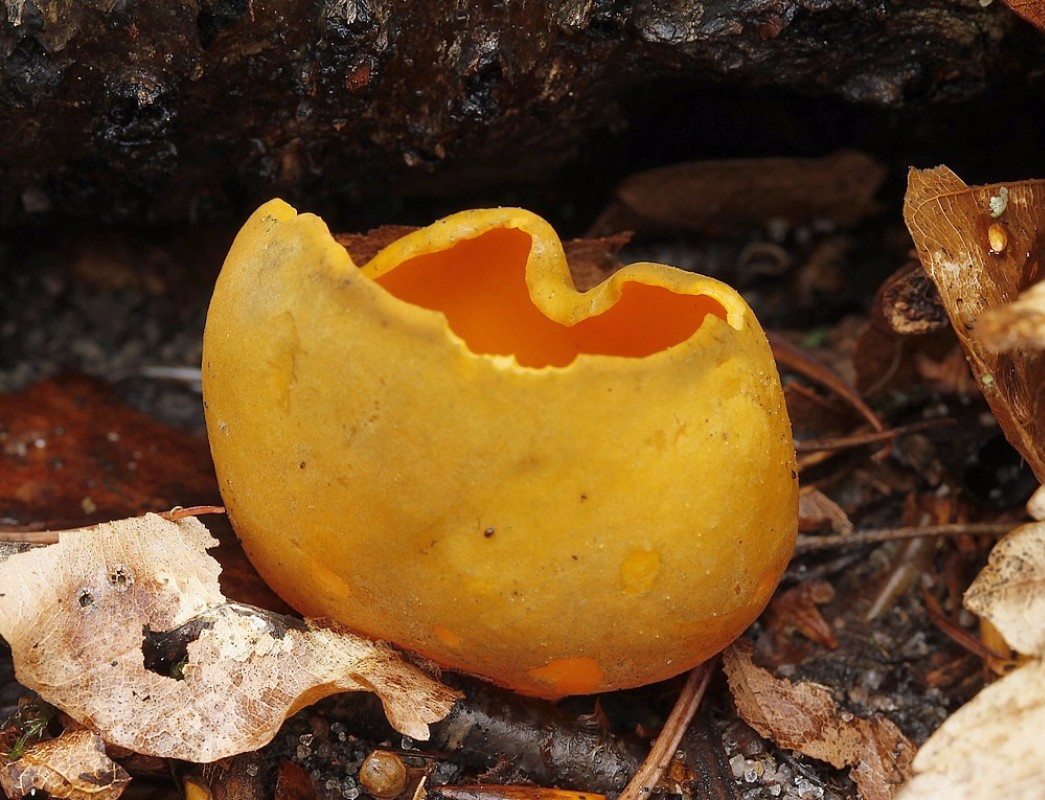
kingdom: Fungi
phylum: Ascomycota
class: Pezizomycetes
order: Pezizales
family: Caloscyphaceae
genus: Caloscypha
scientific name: Caloscypha fulgens
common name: jadebæger
